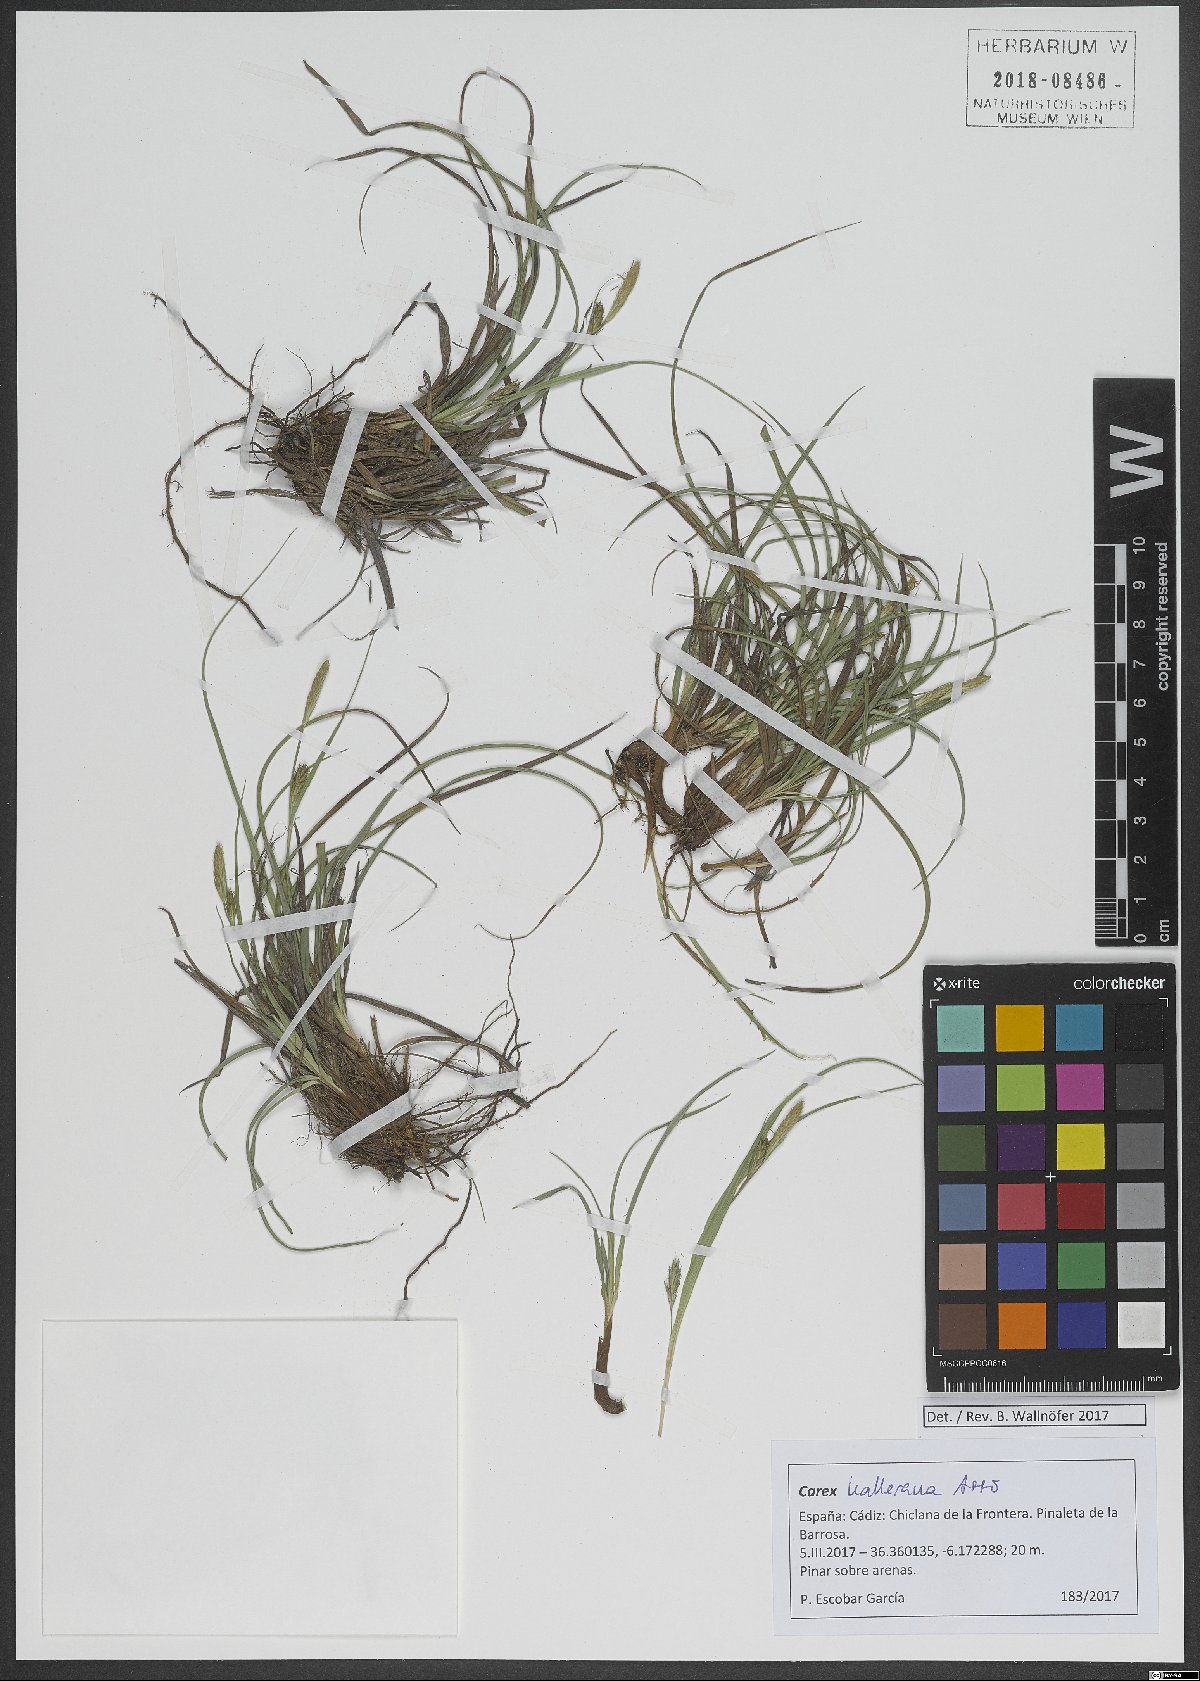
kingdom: Plantae
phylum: Tracheophyta
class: Liliopsida
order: Poales
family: Cyperaceae
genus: Carex
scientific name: Carex halleriana
